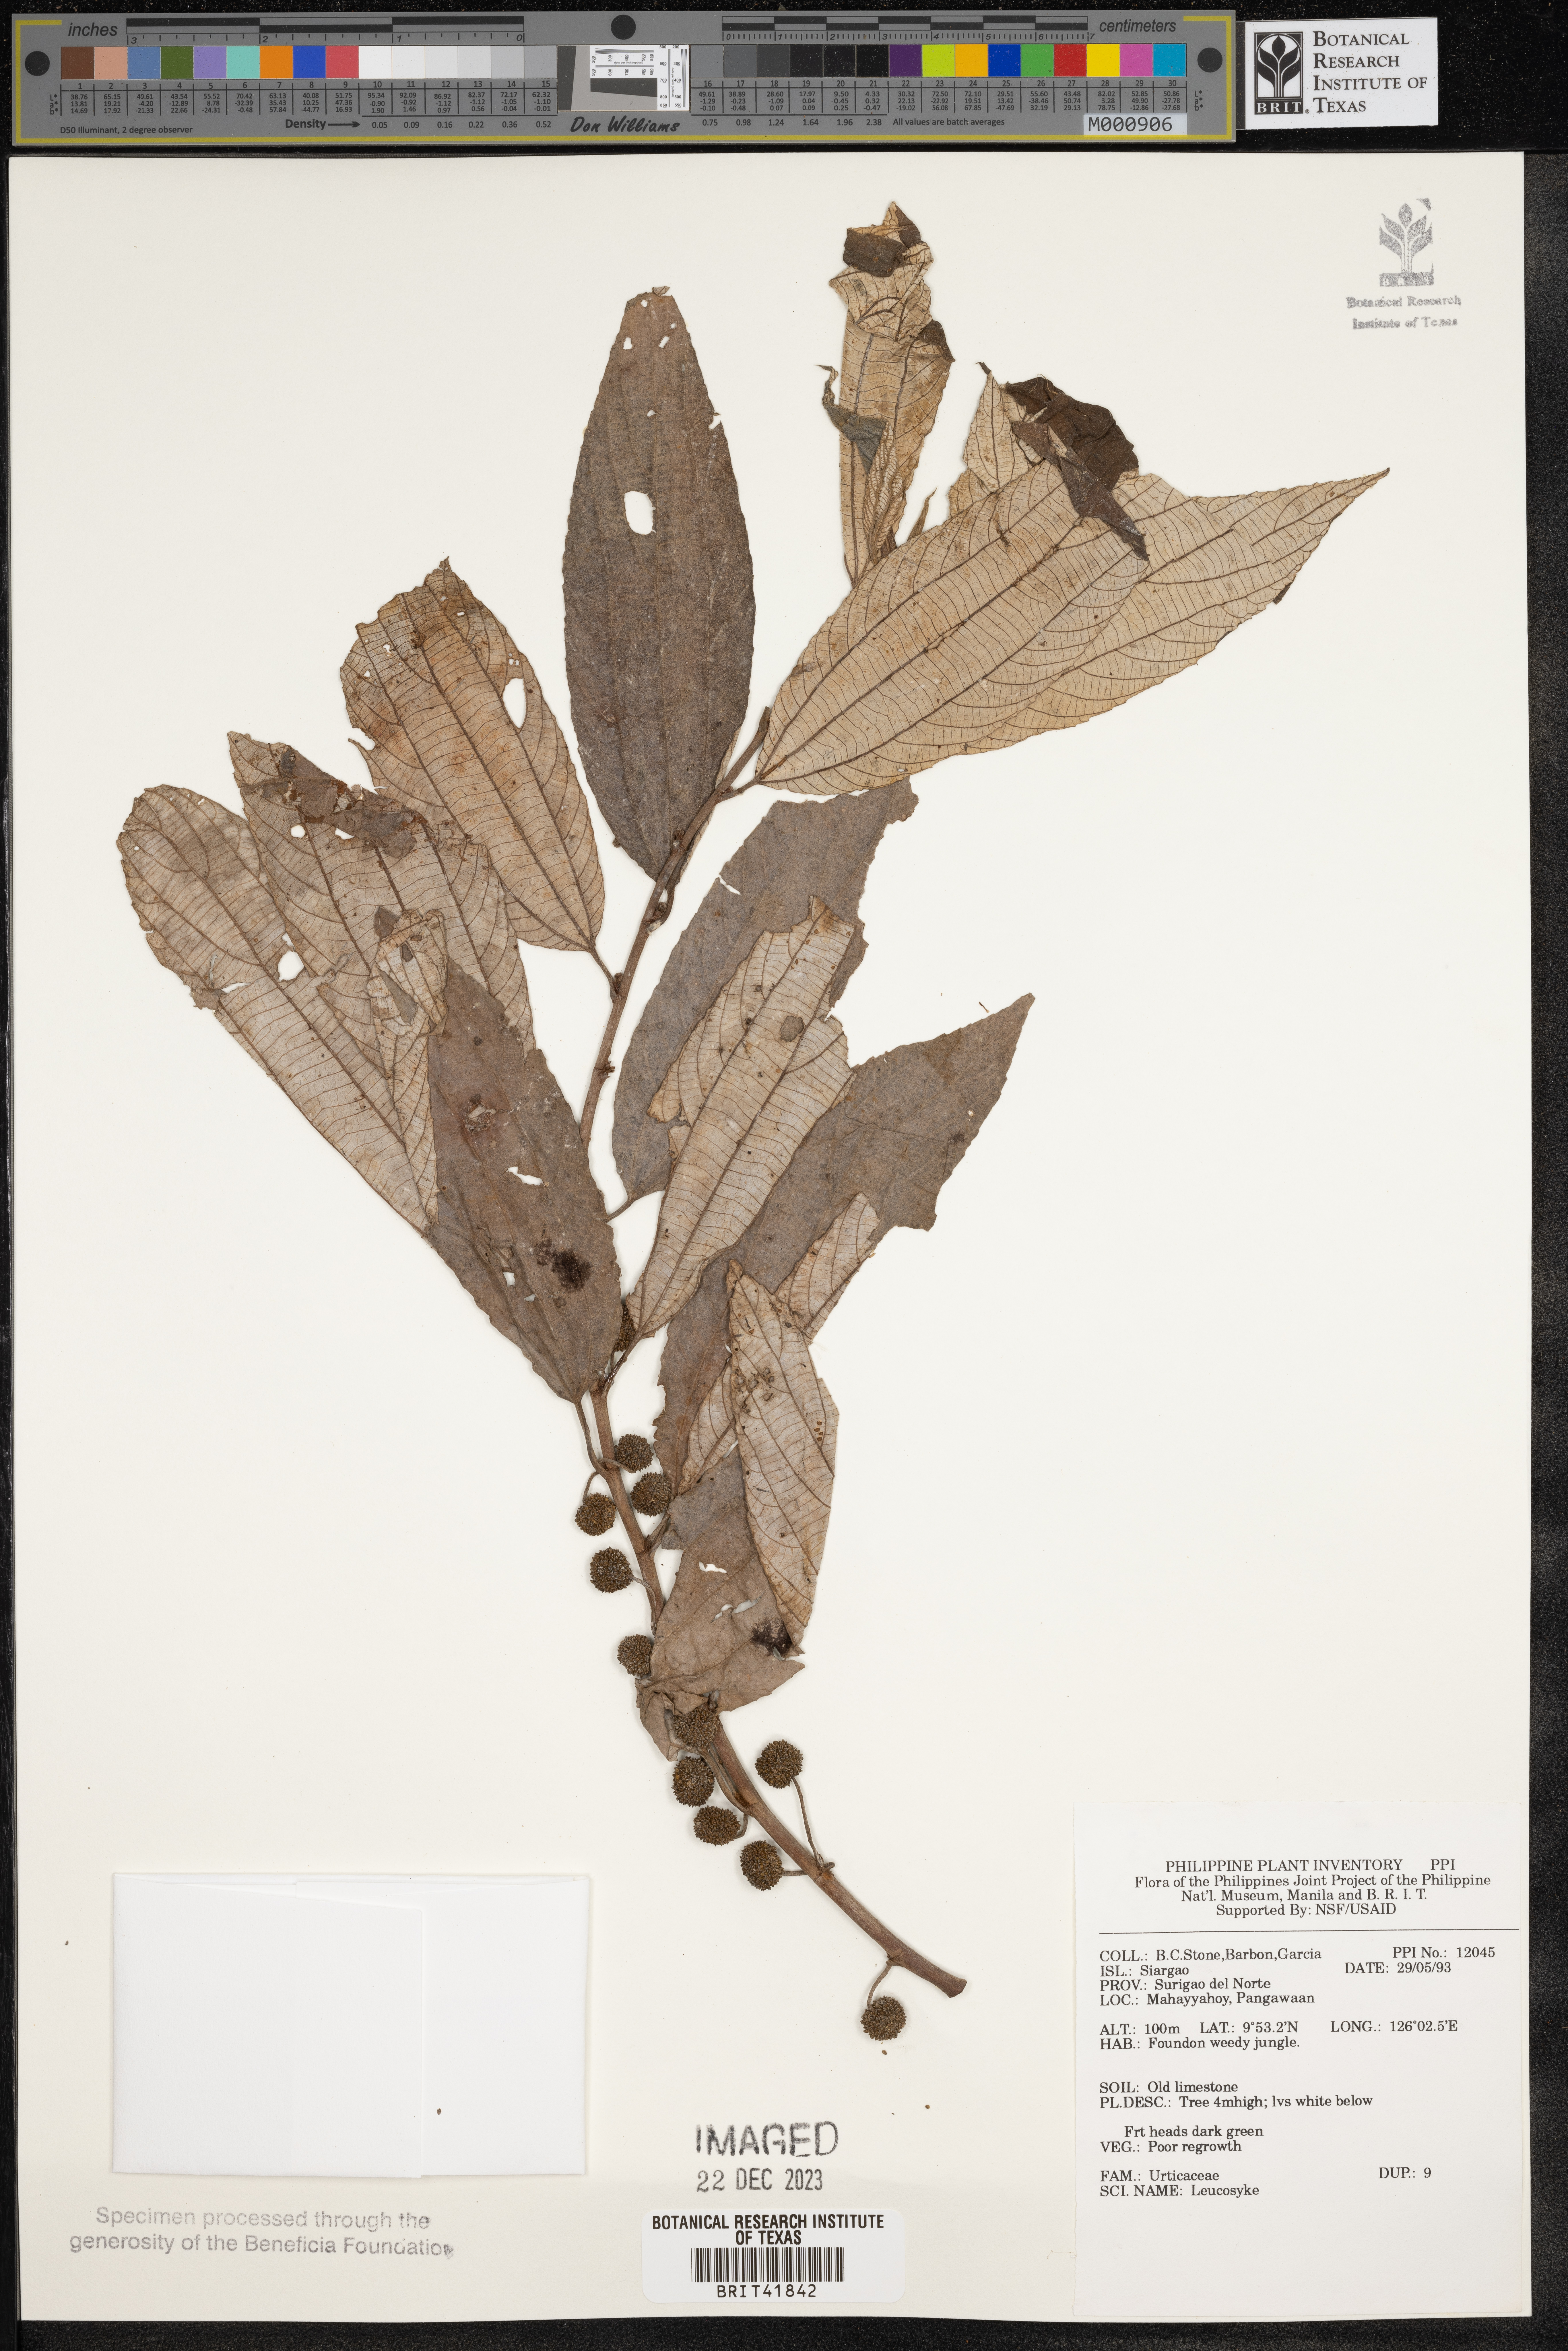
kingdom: Plantae
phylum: Tracheophyta
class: Magnoliopsida
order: Rosales
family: Urticaceae
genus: Leucosyke
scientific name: Leucosyke
